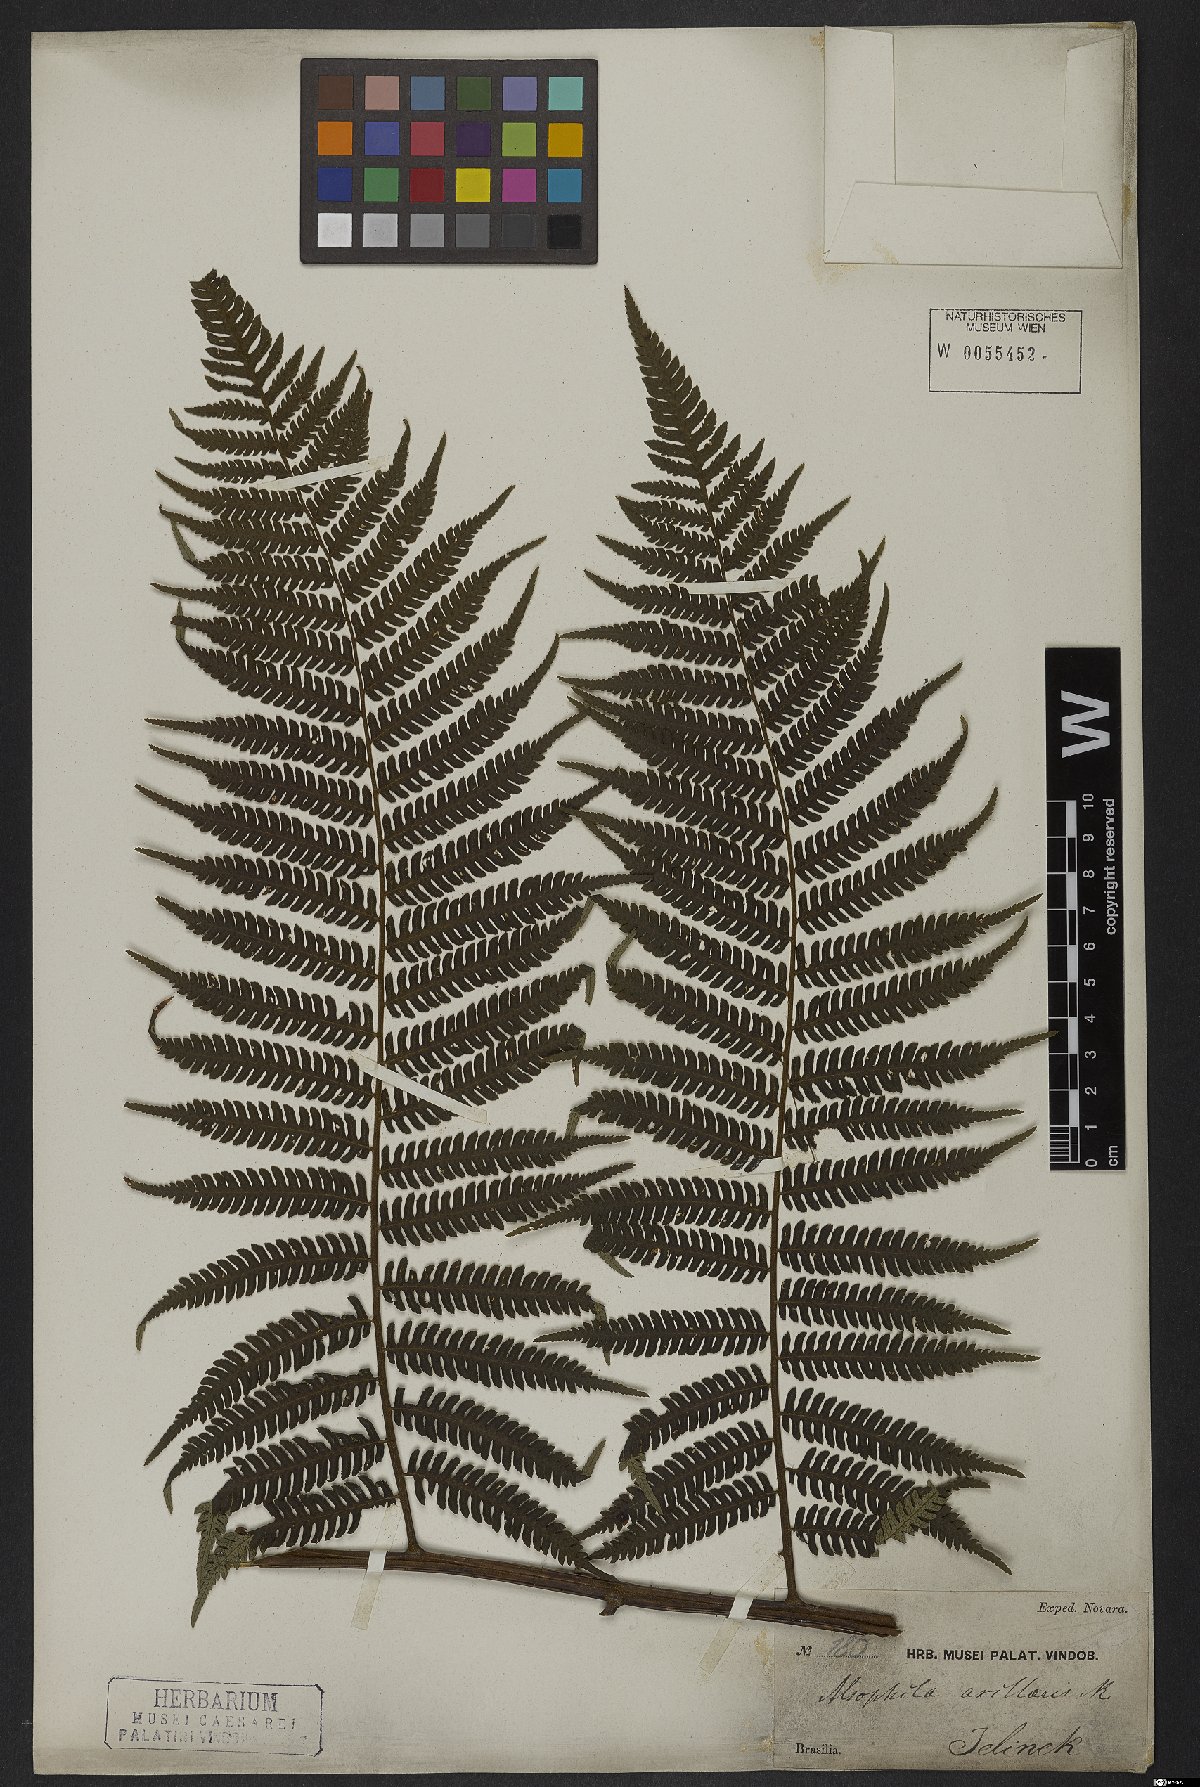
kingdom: Plantae
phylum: Tracheophyta
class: Polypodiopsida
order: Cyatheales
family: Cyatheaceae
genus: Cyathea
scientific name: Cyathea microdonta
